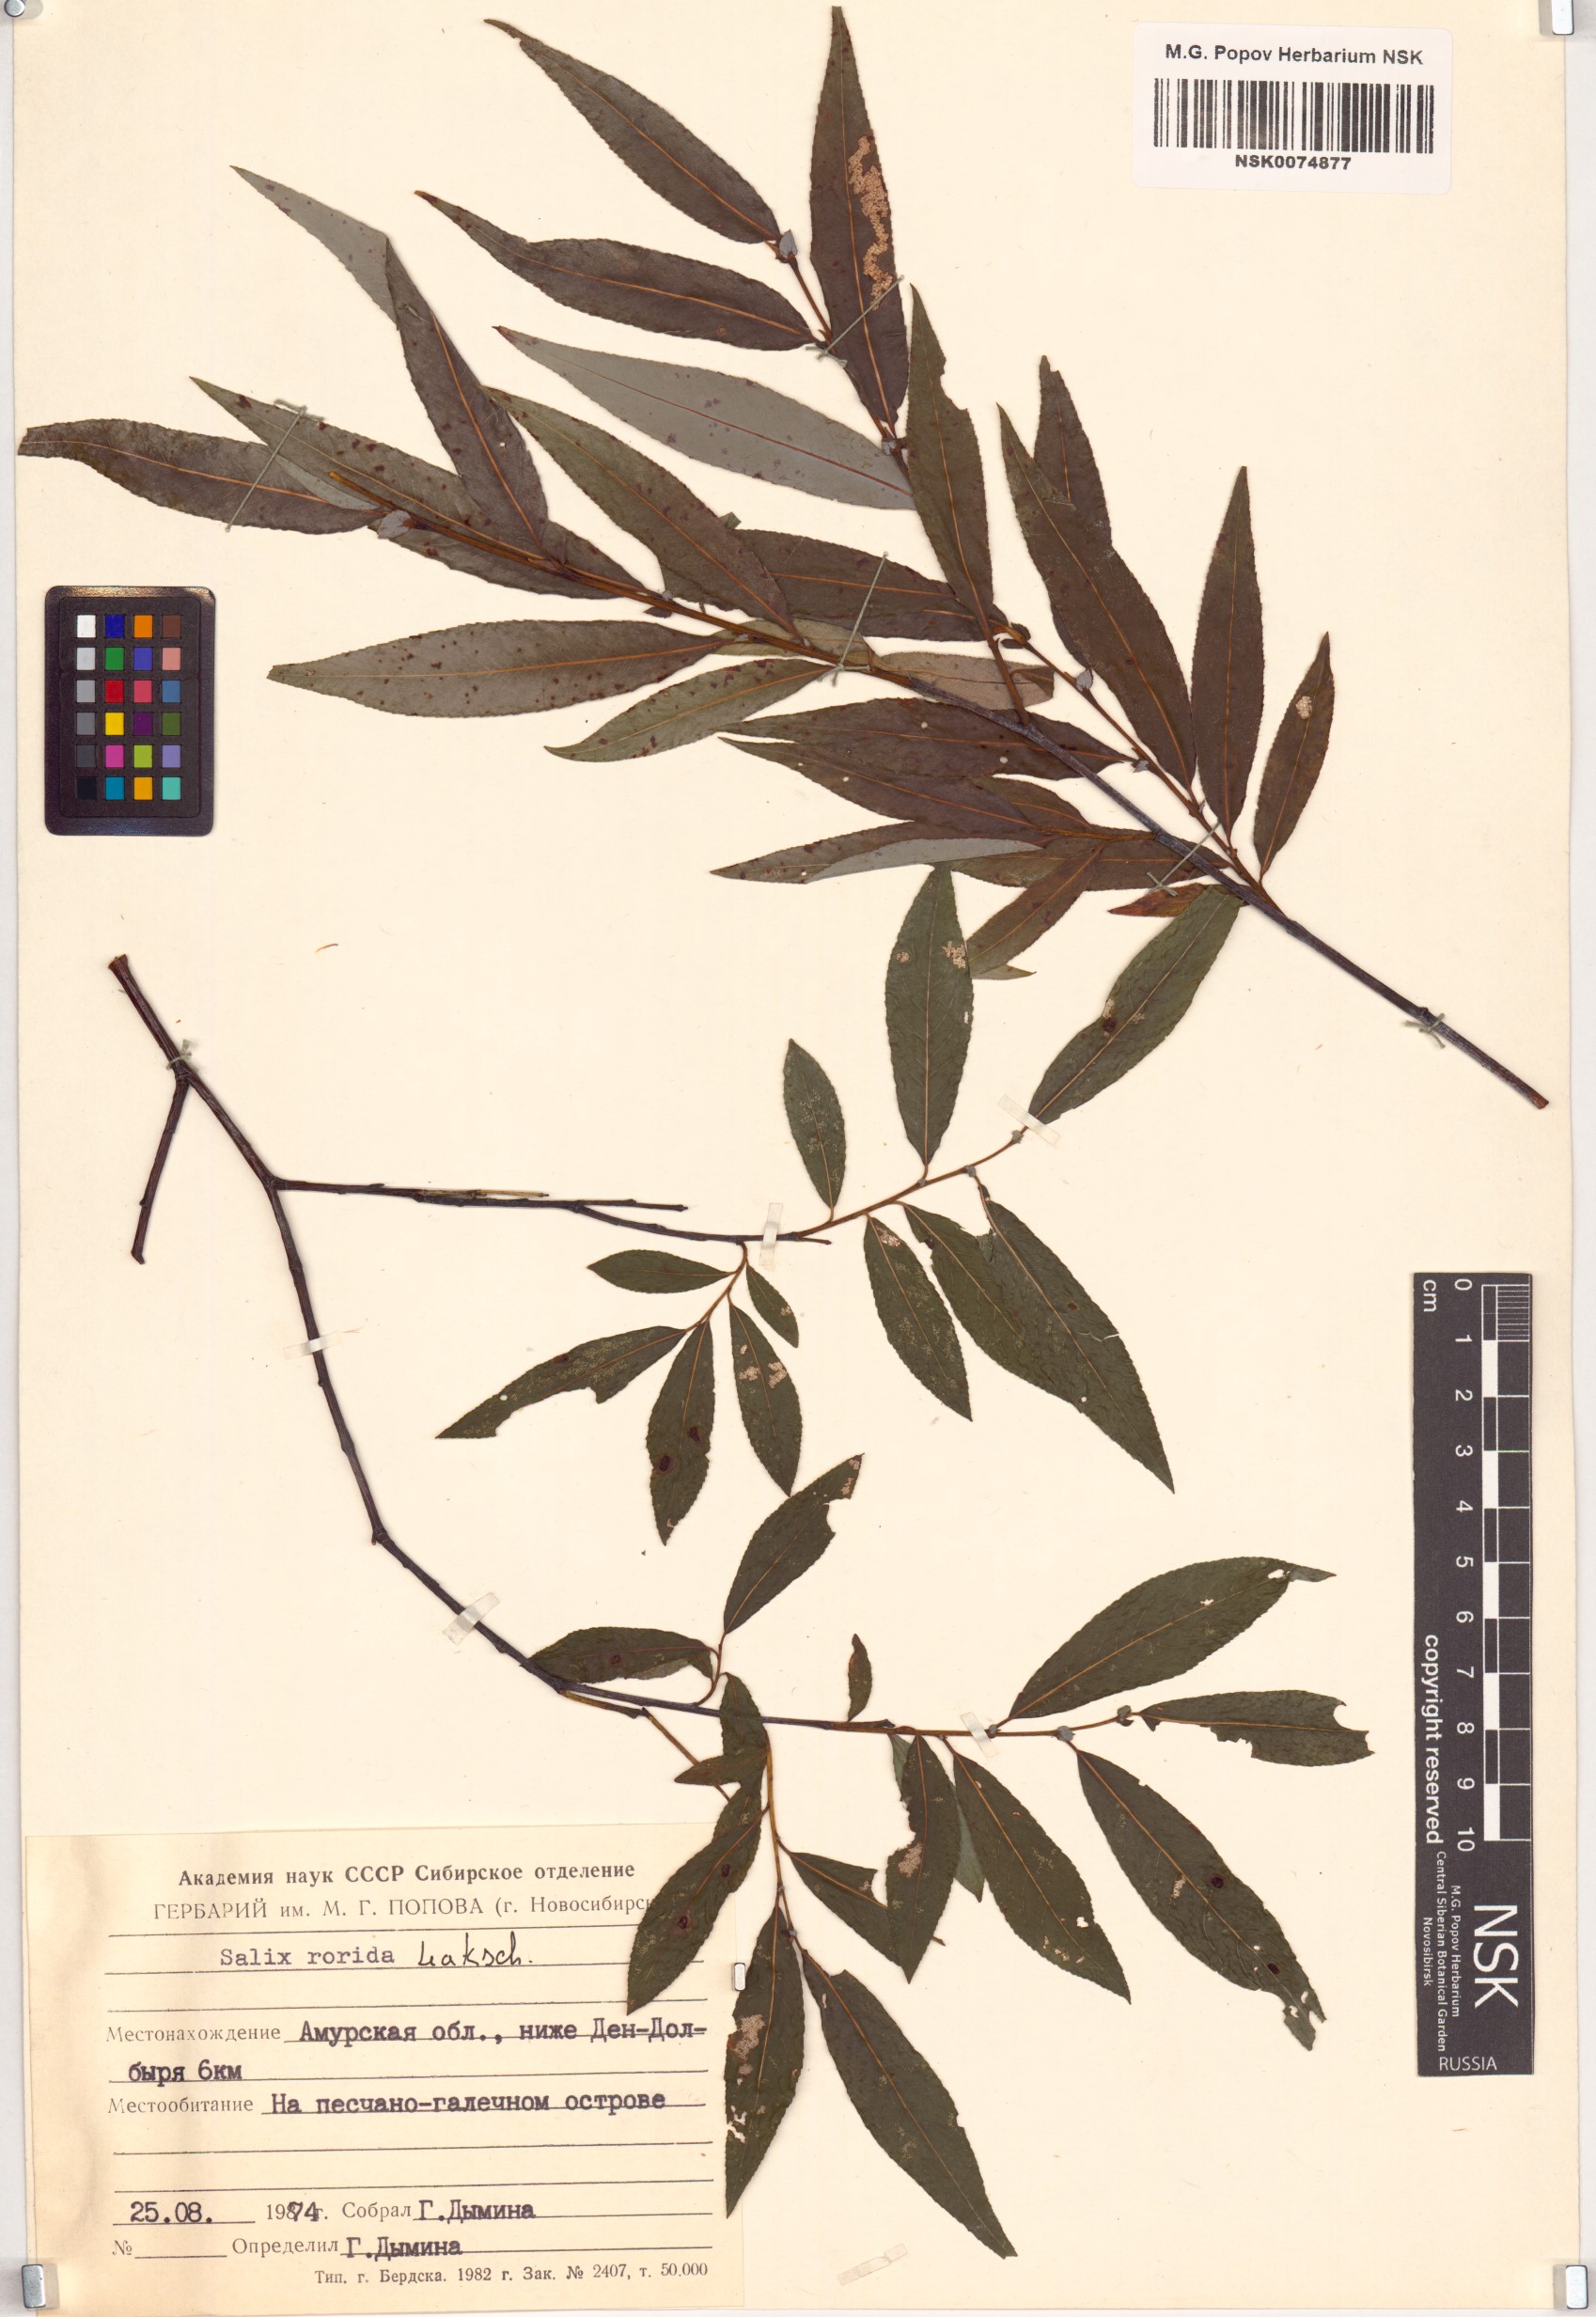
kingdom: Plantae
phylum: Tracheophyta
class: Magnoliopsida
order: Malpighiales
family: Salicaceae
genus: Salix
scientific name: Salix rorida
